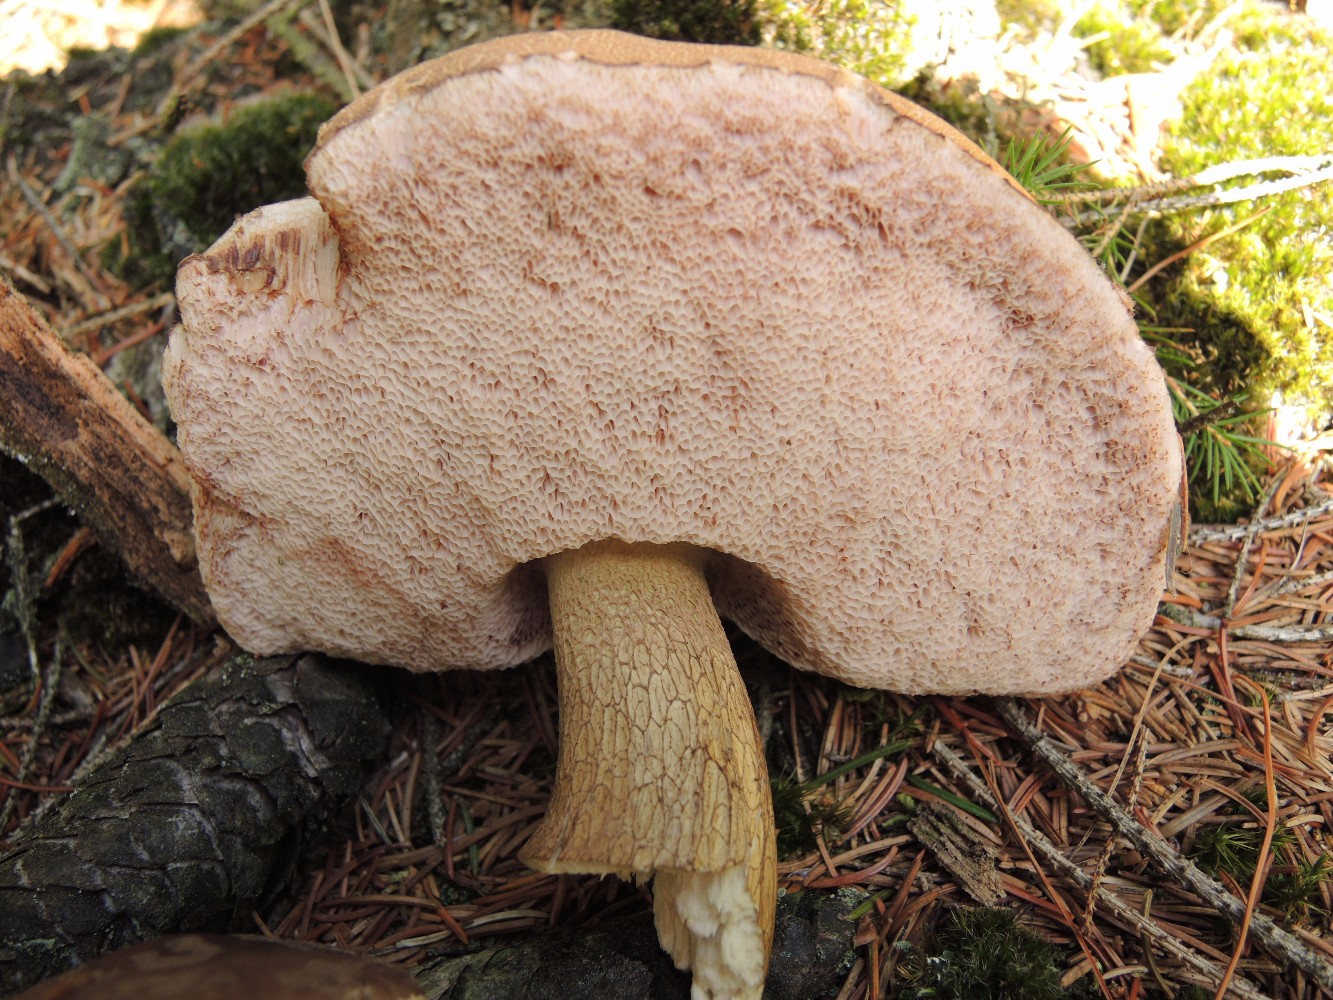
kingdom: Fungi
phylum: Basidiomycota
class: Agaricomycetes
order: Boletales
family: Boletaceae
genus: Tylopilus
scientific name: Tylopilus felleus
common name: galderørhat
